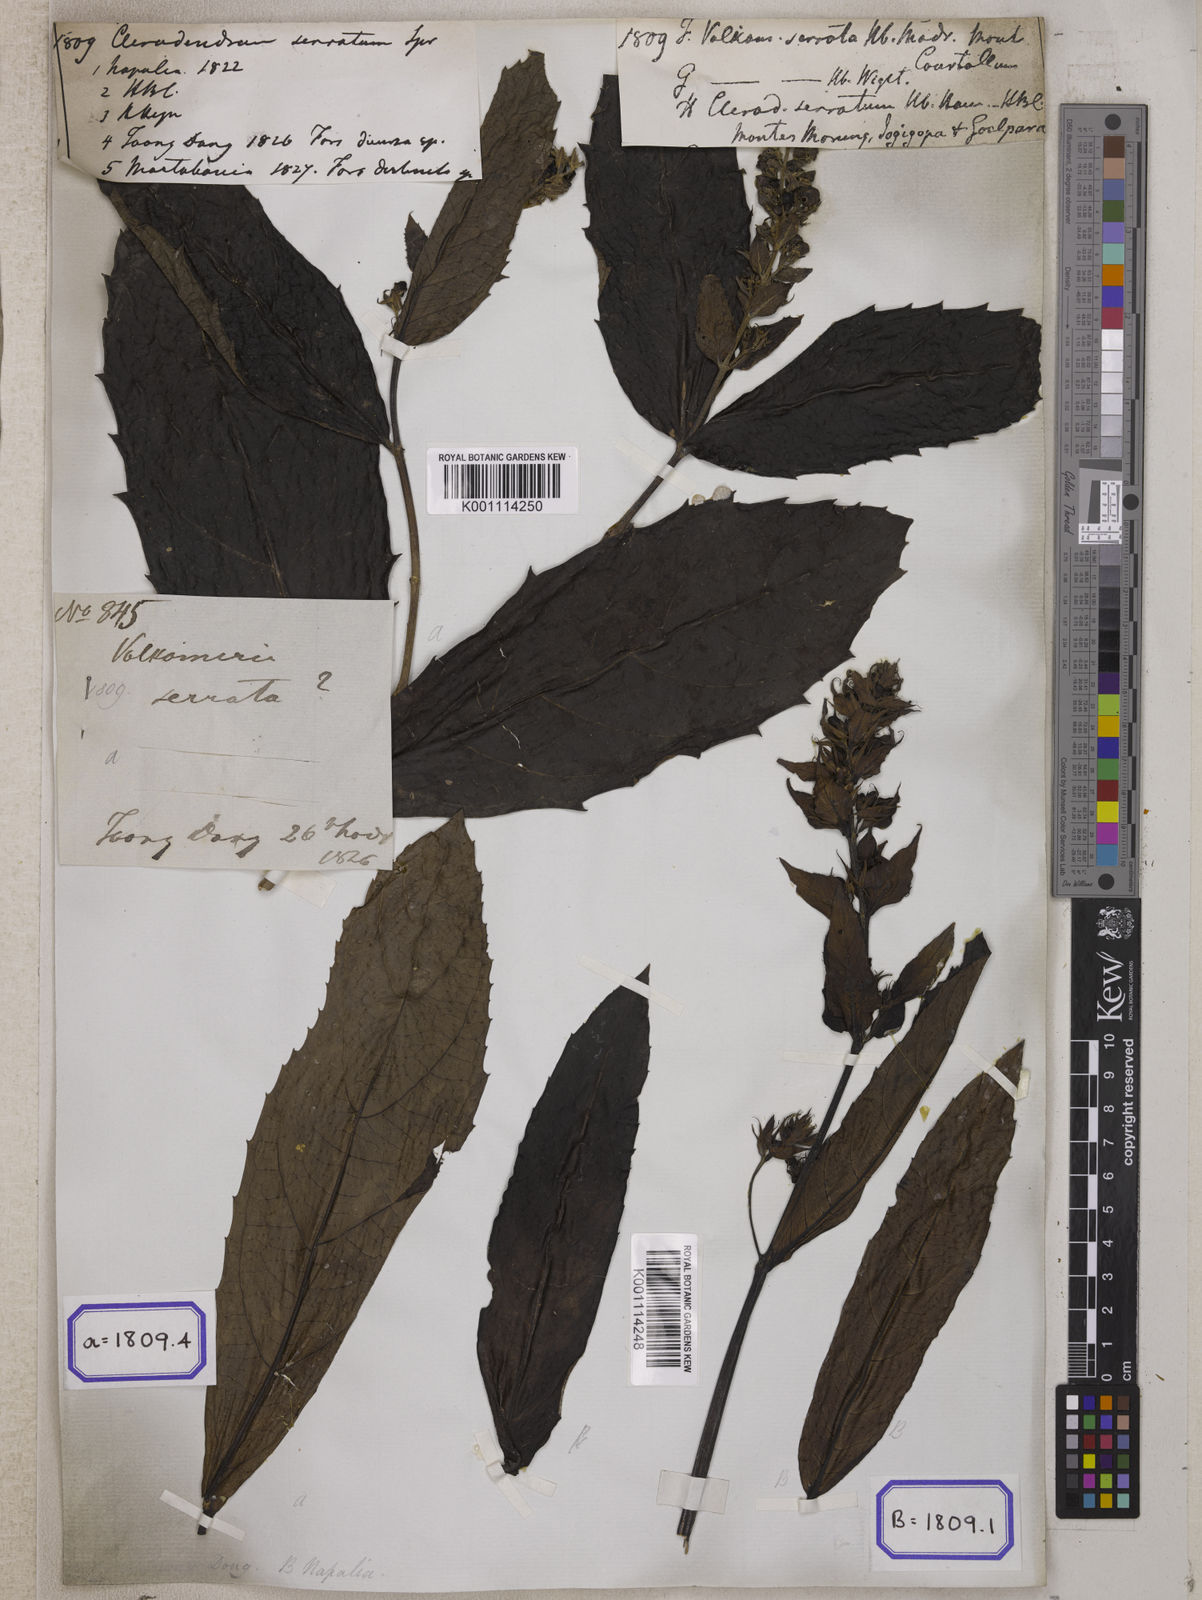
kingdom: Plantae
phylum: Tracheophyta
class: Magnoliopsida
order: Lamiales
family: Lamiaceae
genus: Clerodendrum
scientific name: Clerodendrum
